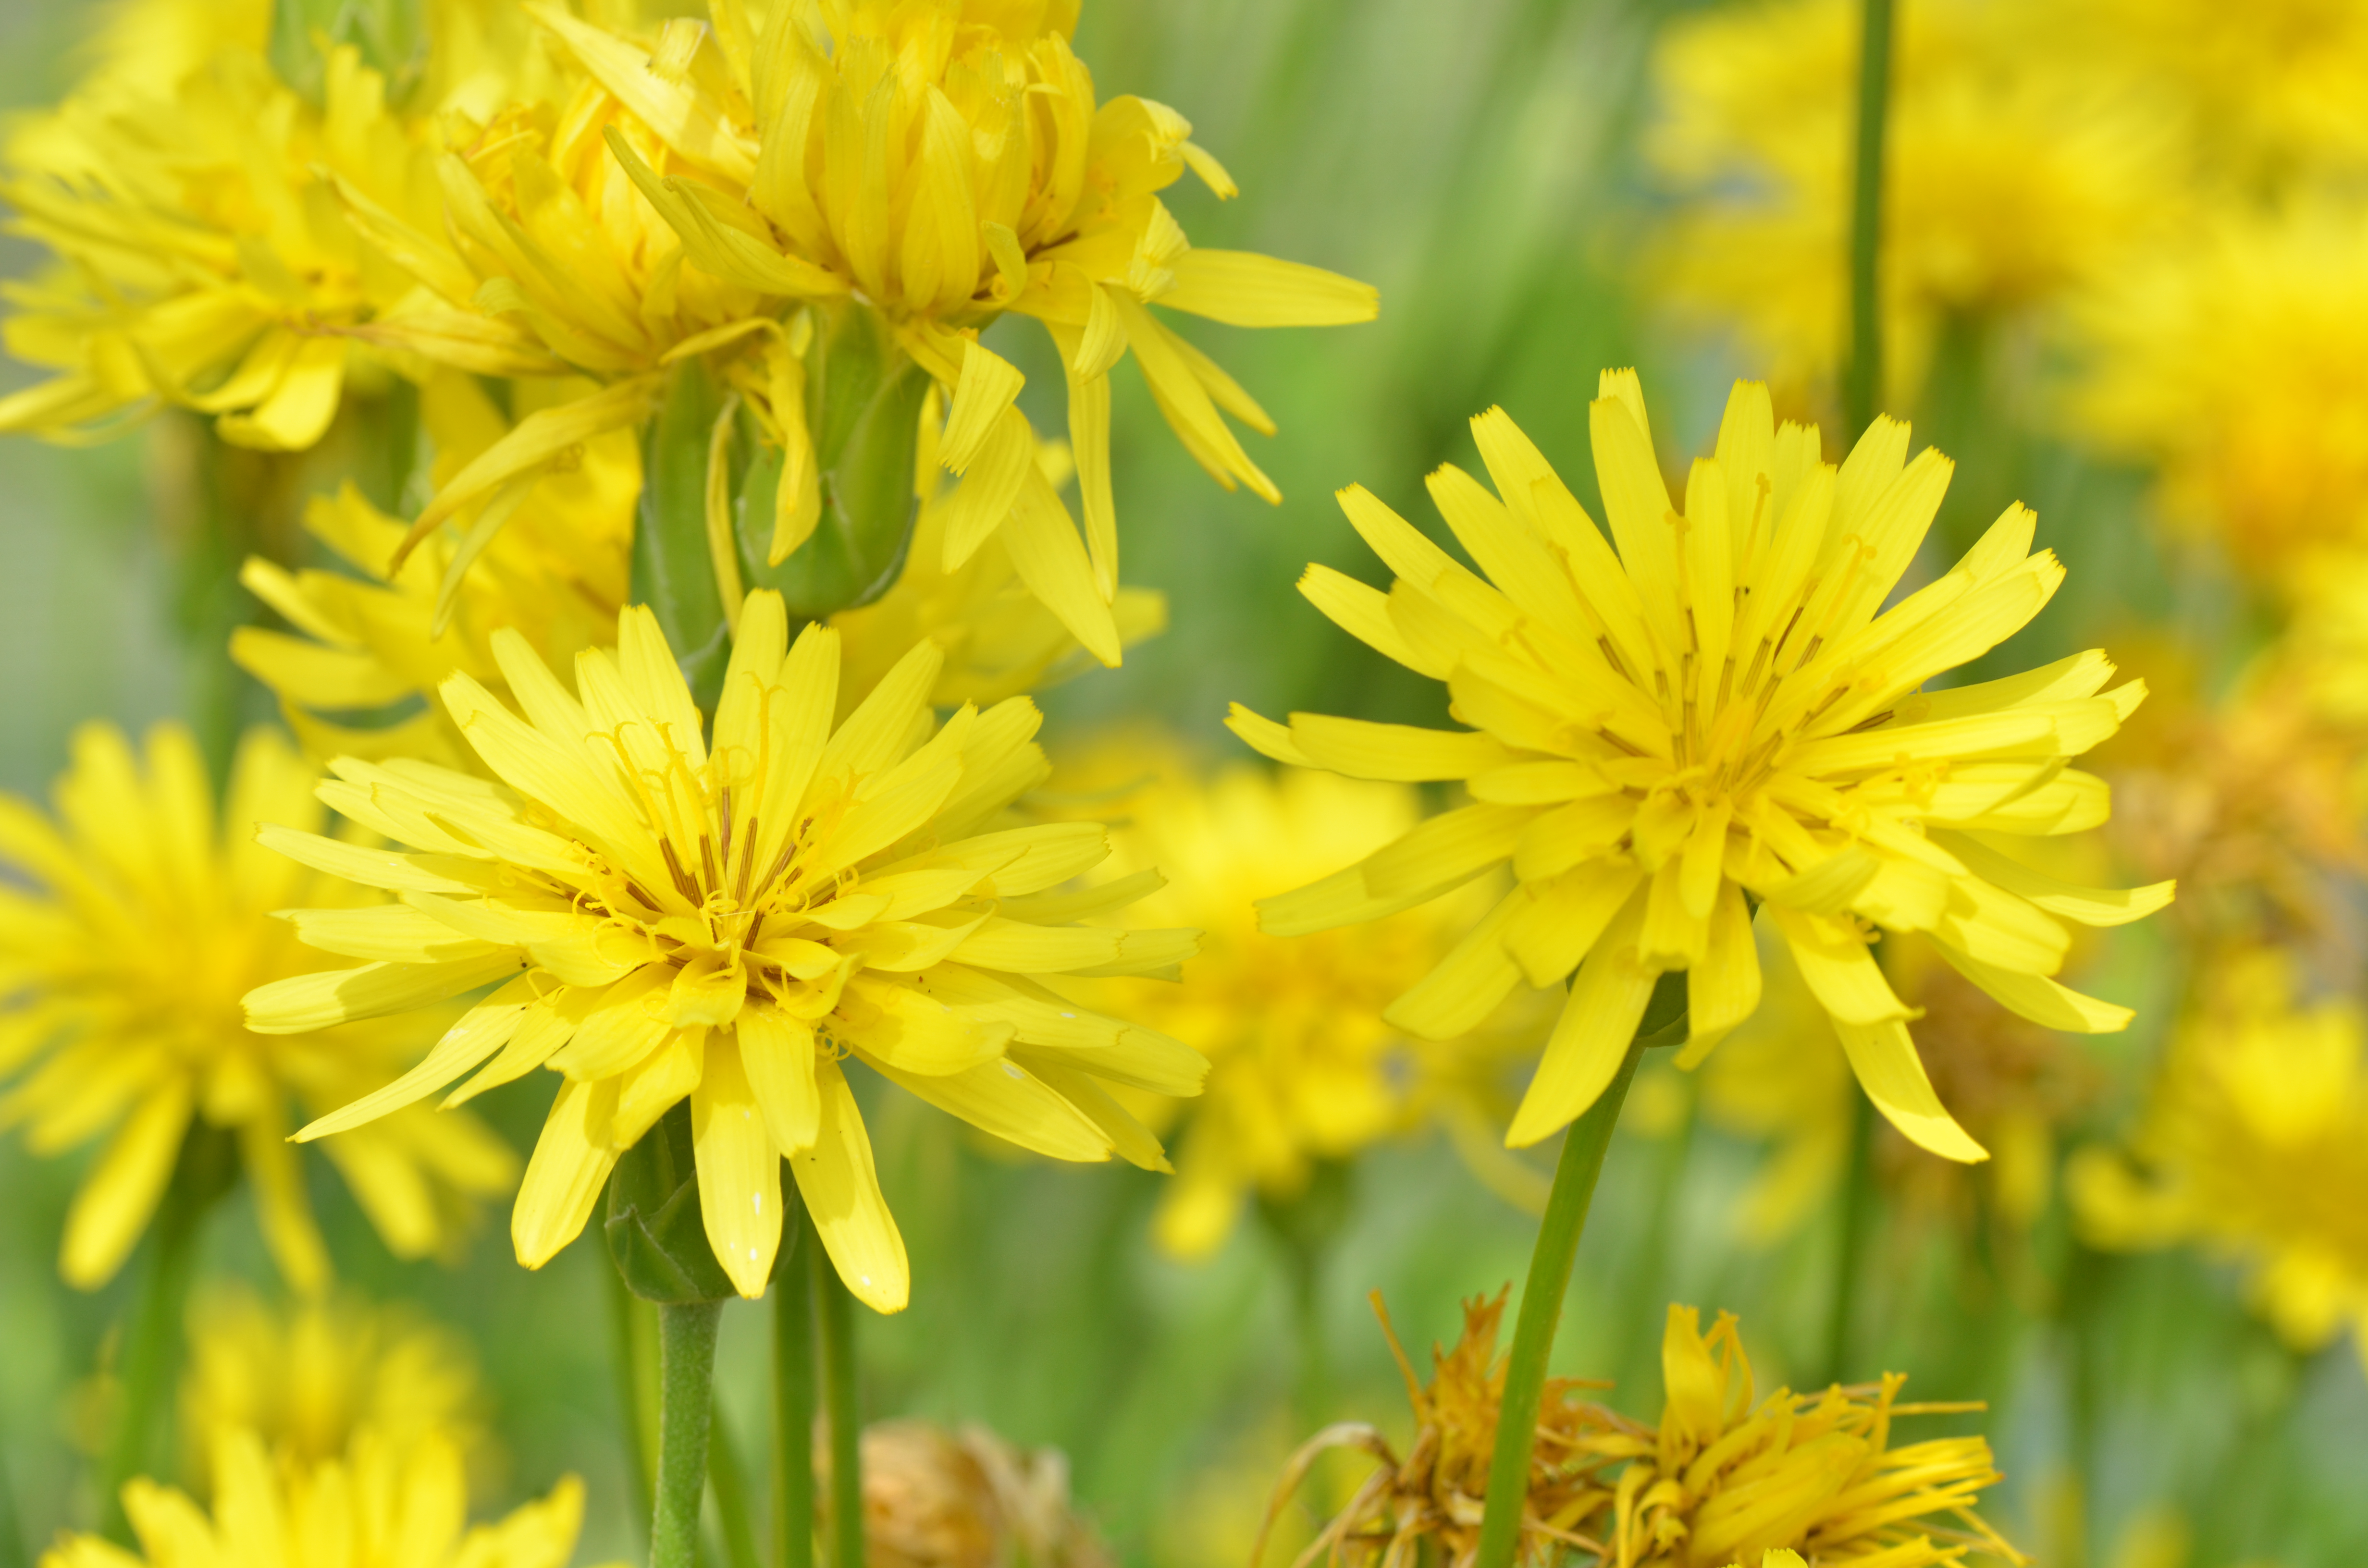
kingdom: Plantae
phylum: Tracheophyta
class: Magnoliopsida
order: Asterales
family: Asteraceae
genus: Pseudopodospermum
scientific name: Pseudopodospermum hispanicum
